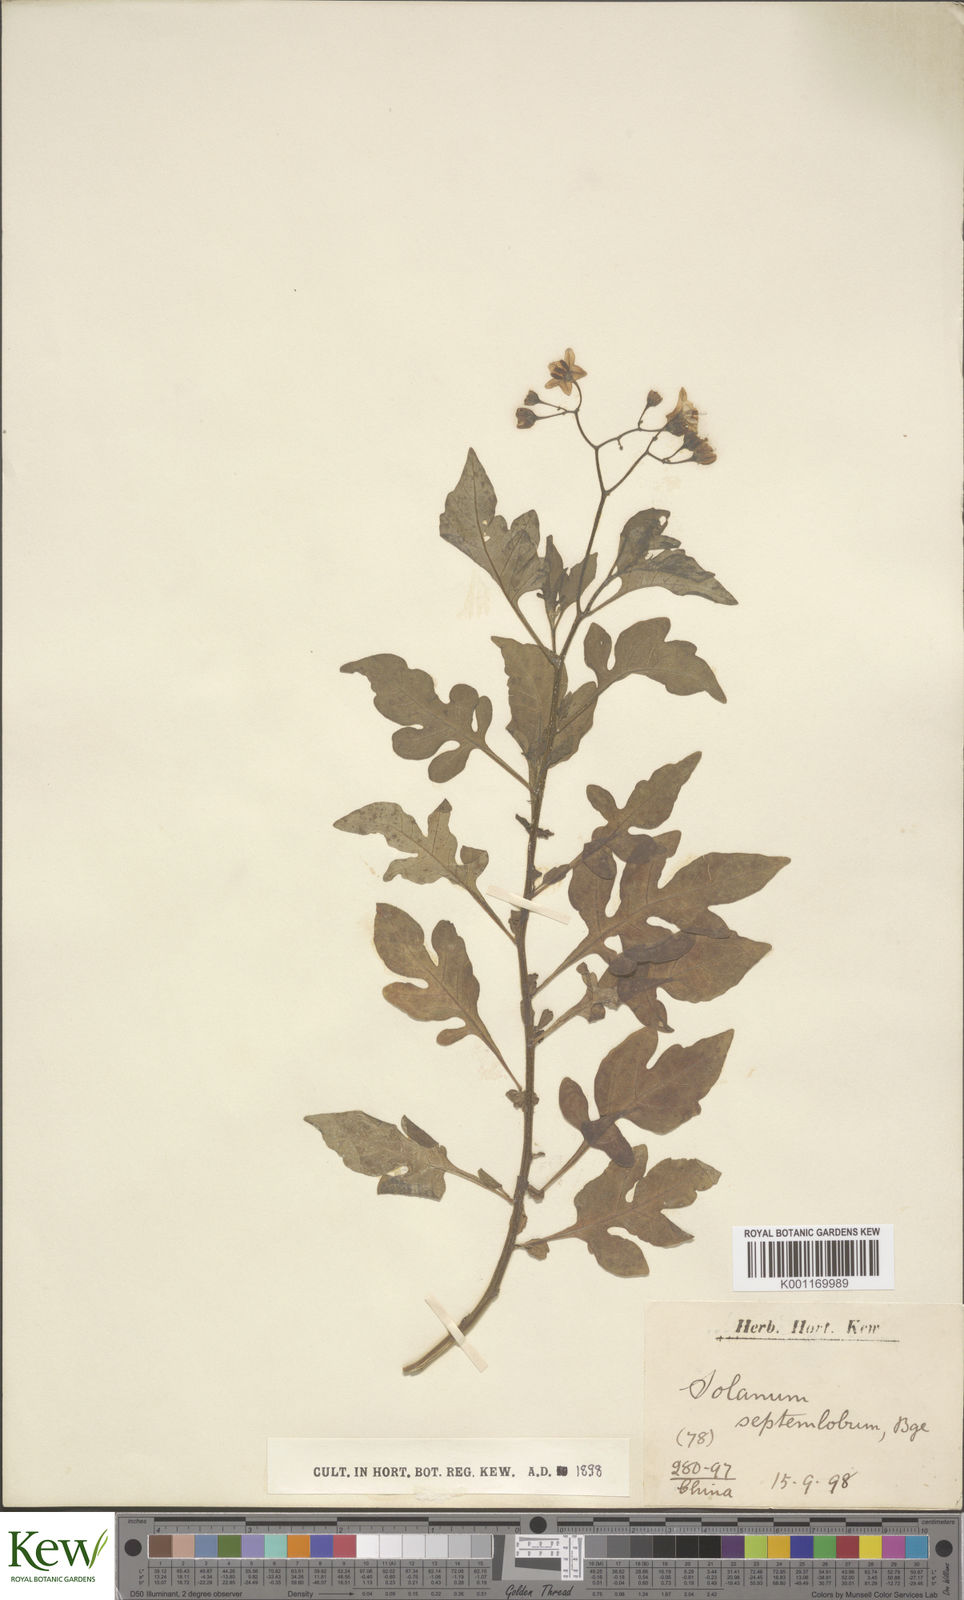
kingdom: Plantae
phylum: Tracheophyta
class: Magnoliopsida
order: Solanales
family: Solanaceae
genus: Solanum
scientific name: Solanum septemlobum
